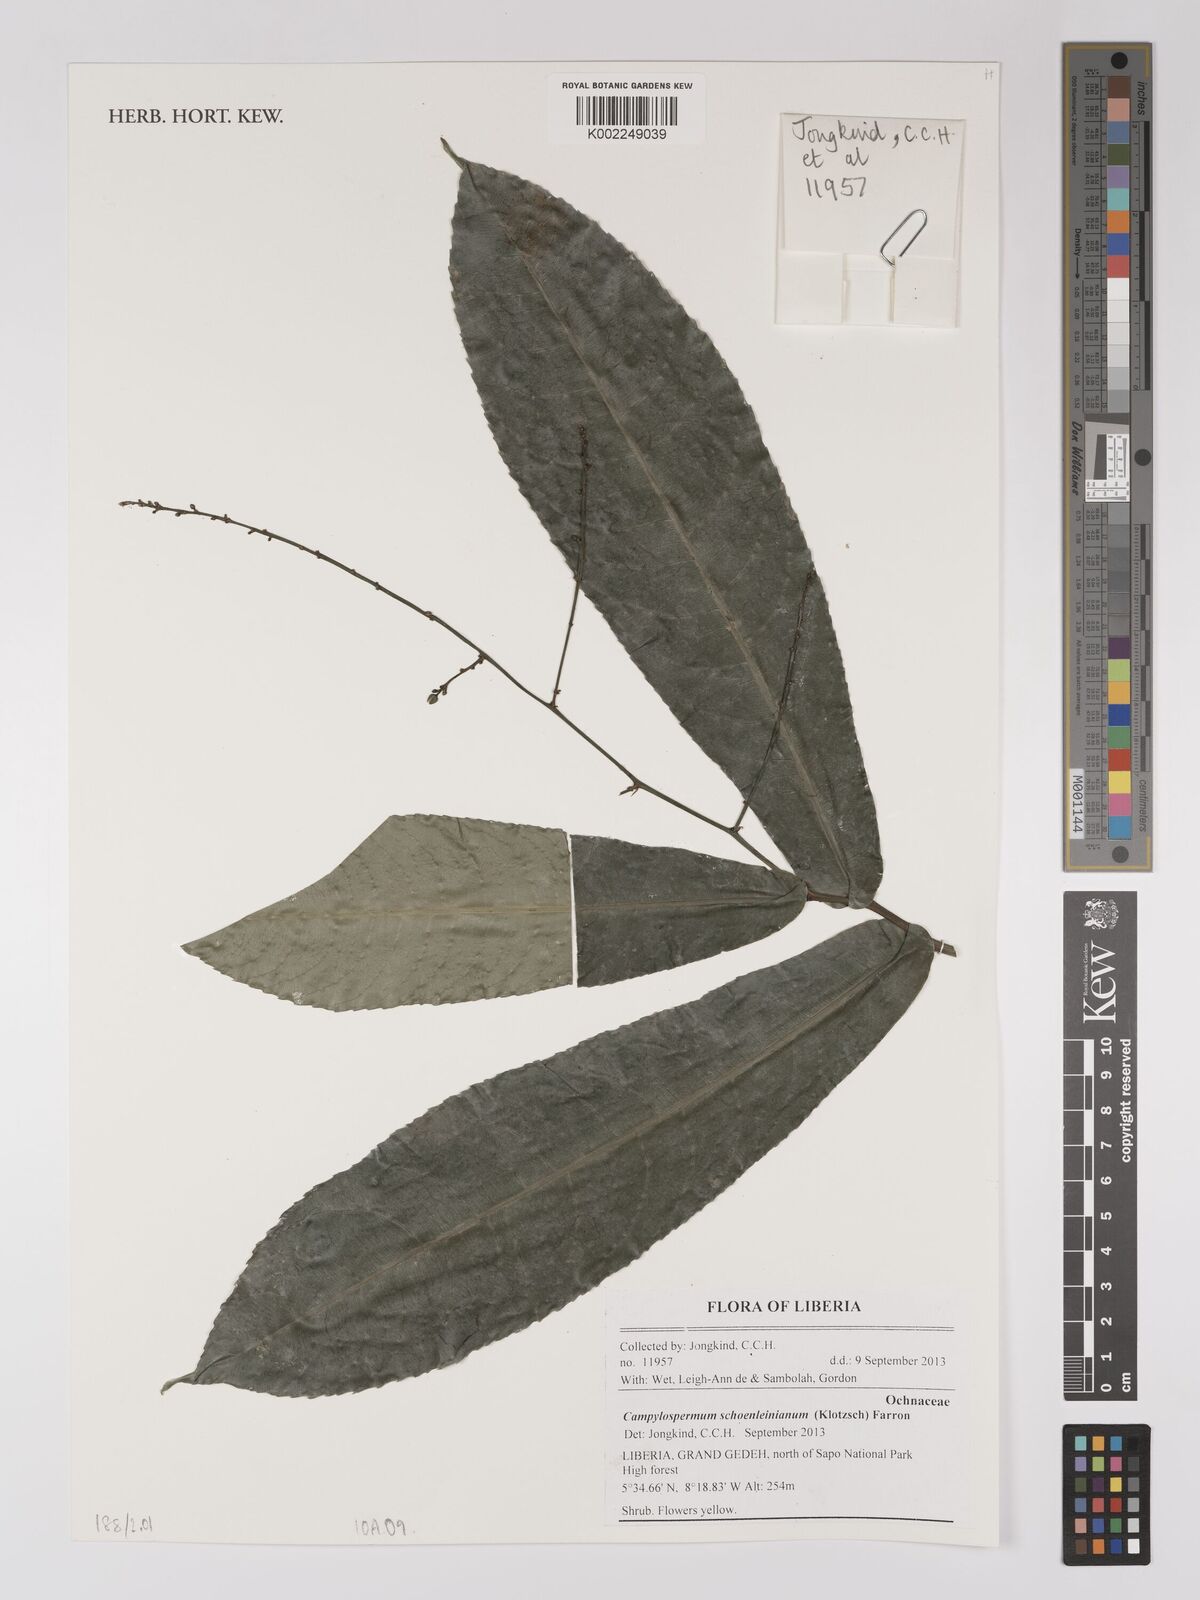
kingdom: Plantae
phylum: Tracheophyta
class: Magnoliopsida
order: Malpighiales
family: Ochnaceae
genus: Campylospermum
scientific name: Campylospermum schoenleinianum
